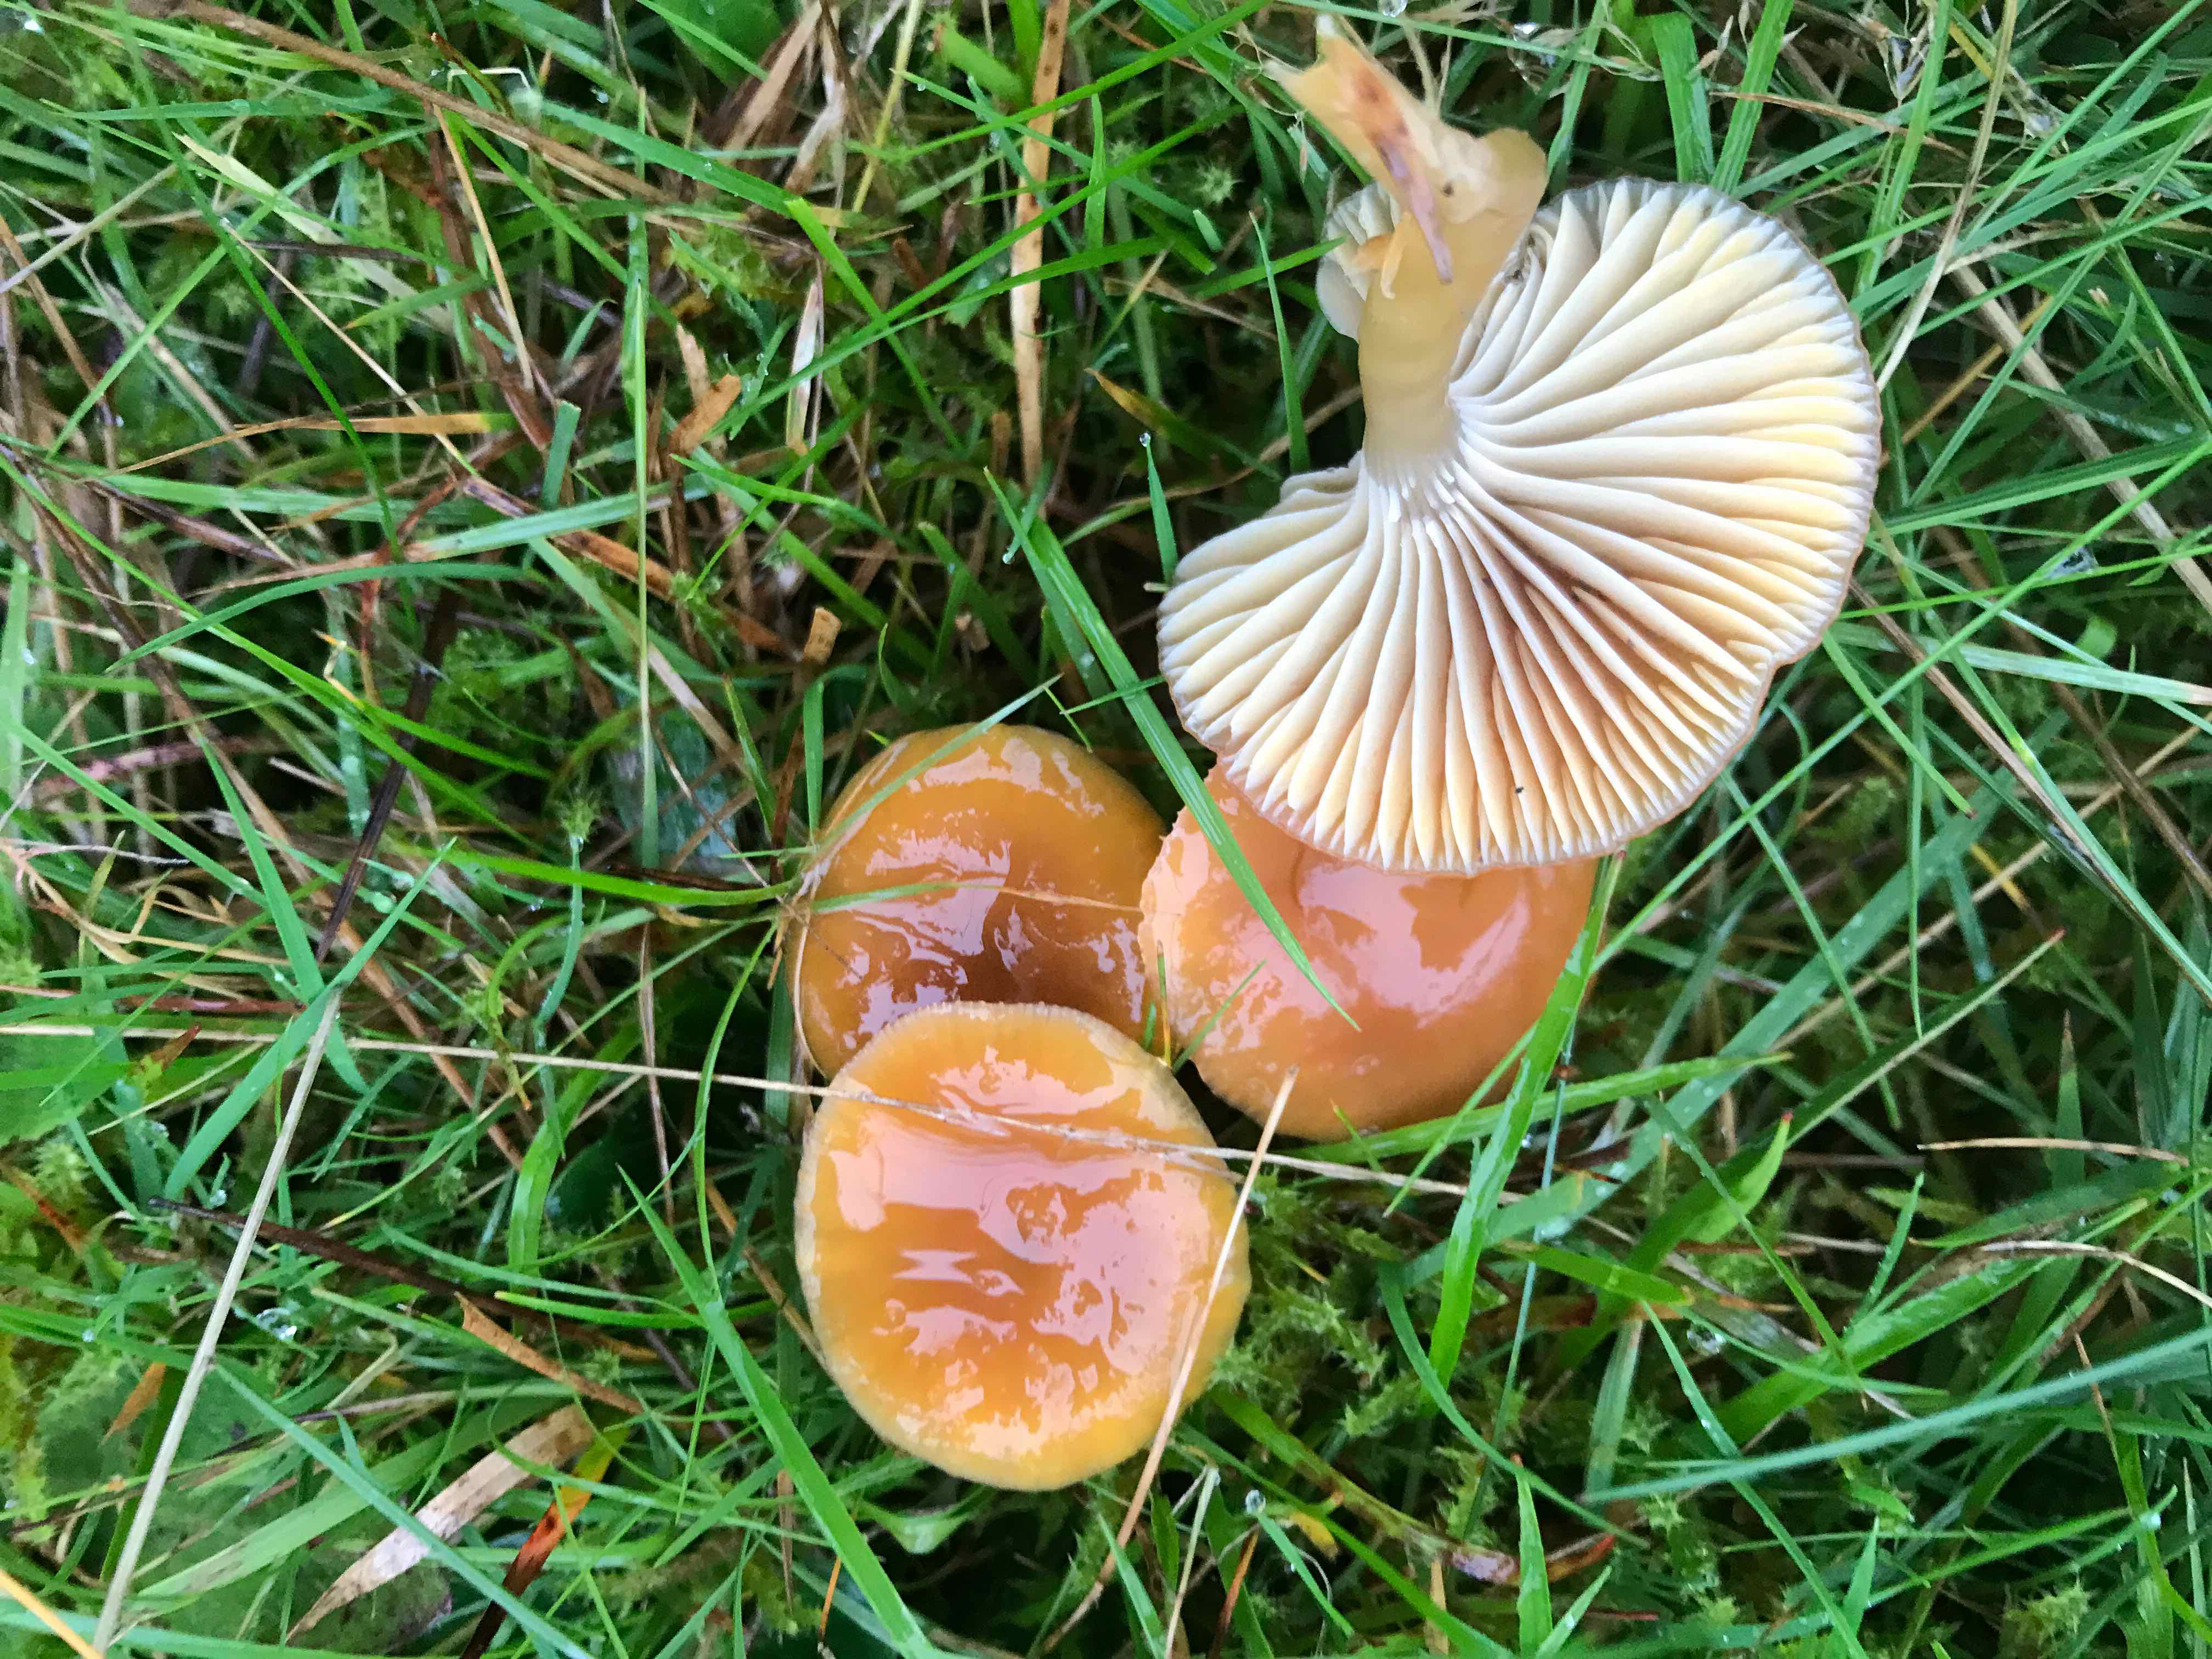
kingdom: Fungi
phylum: Basidiomycota
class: Agaricomycetes
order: Agaricales
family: Hygrophoraceae
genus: Gliophorus
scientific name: Gliophorus laetus
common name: brusk-vokshat
